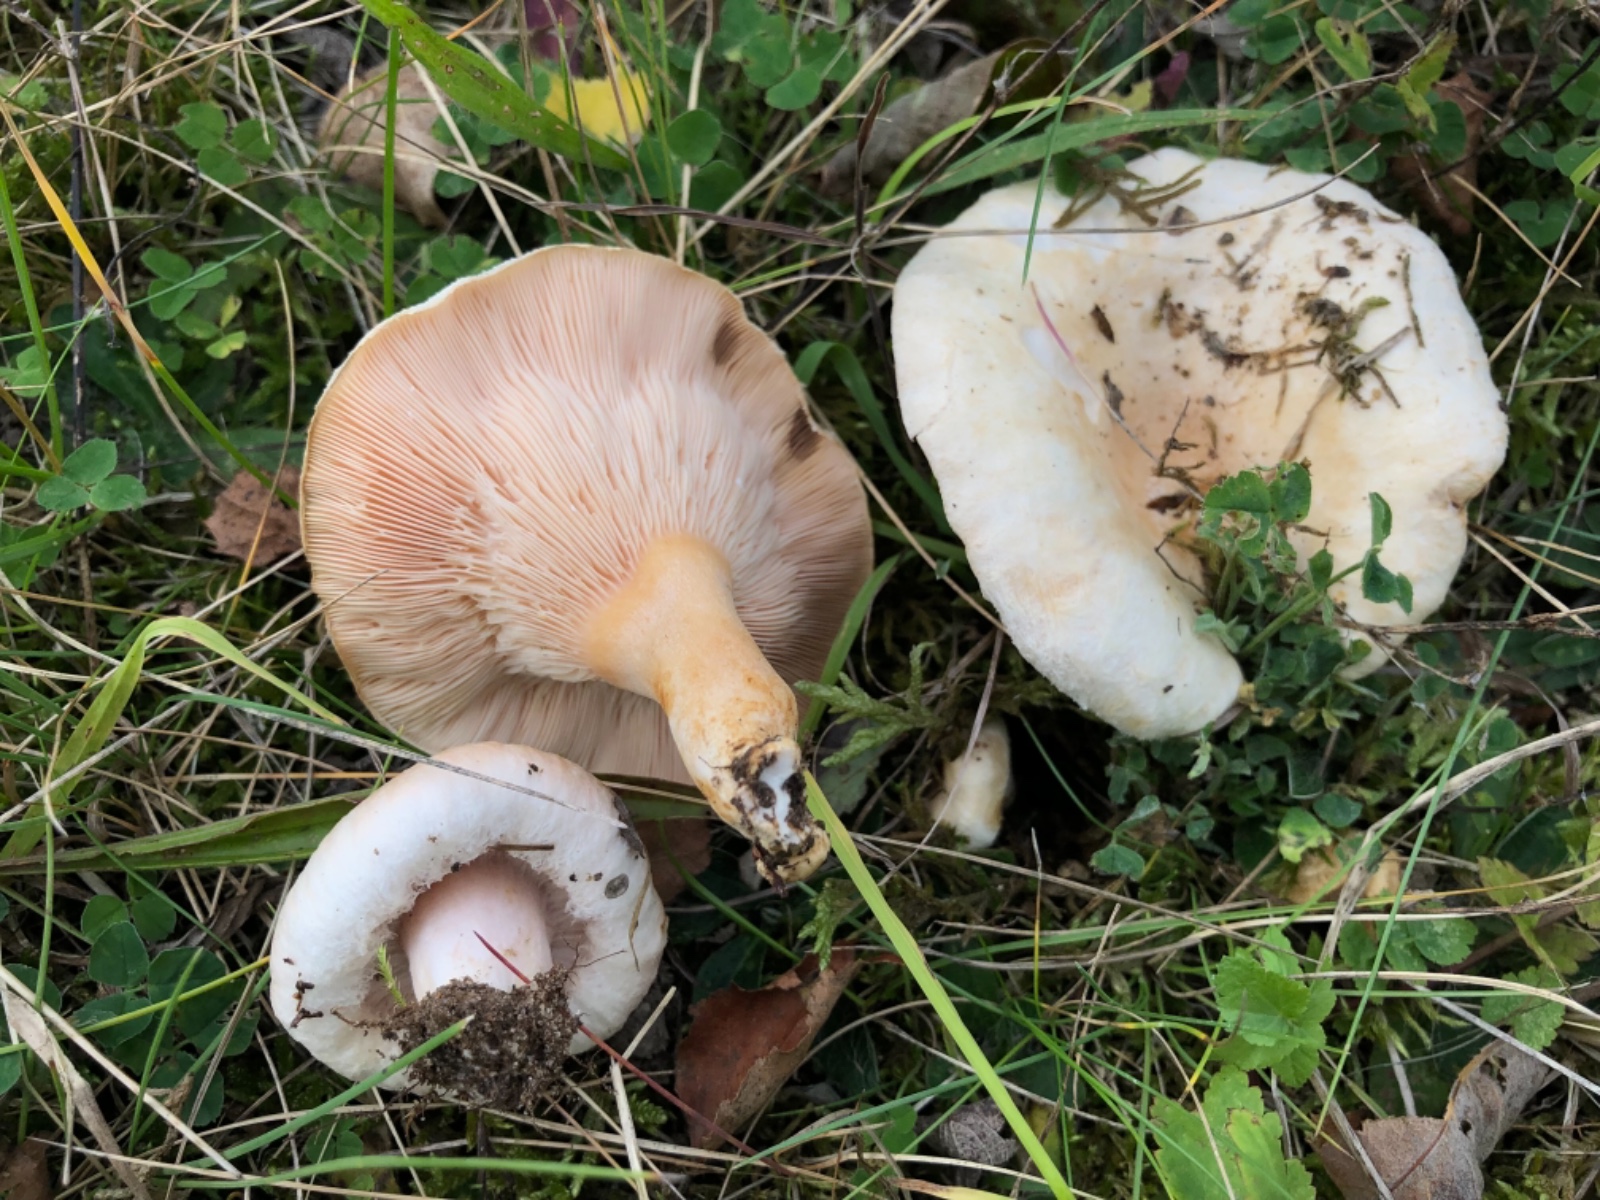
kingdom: Fungi
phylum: Basidiomycota
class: Agaricomycetes
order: Russulales
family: Russulaceae
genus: Lactarius
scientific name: Lactarius pubescens
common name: dunet mælkehat
